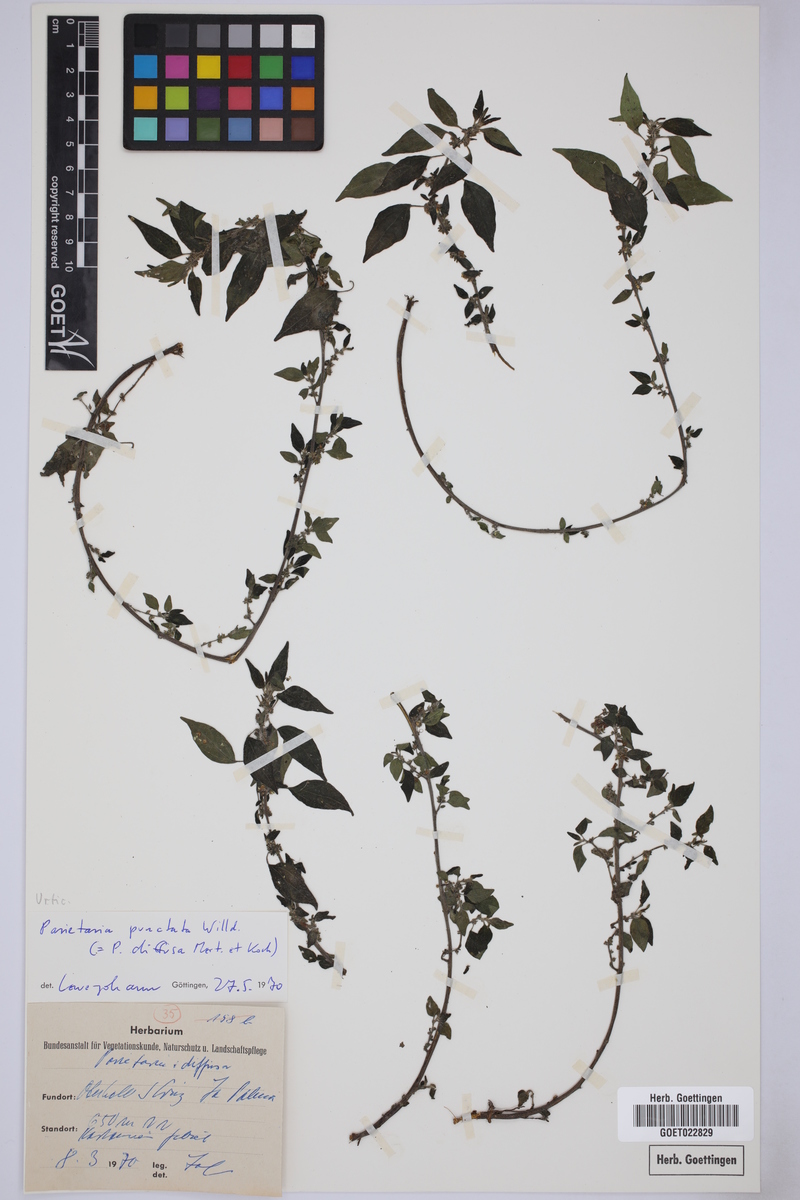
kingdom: Plantae
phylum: Tracheophyta
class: Magnoliopsida
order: Rosales
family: Urticaceae
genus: Parietaria
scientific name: Parietaria judaica
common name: Pellitory-of-the-wall
